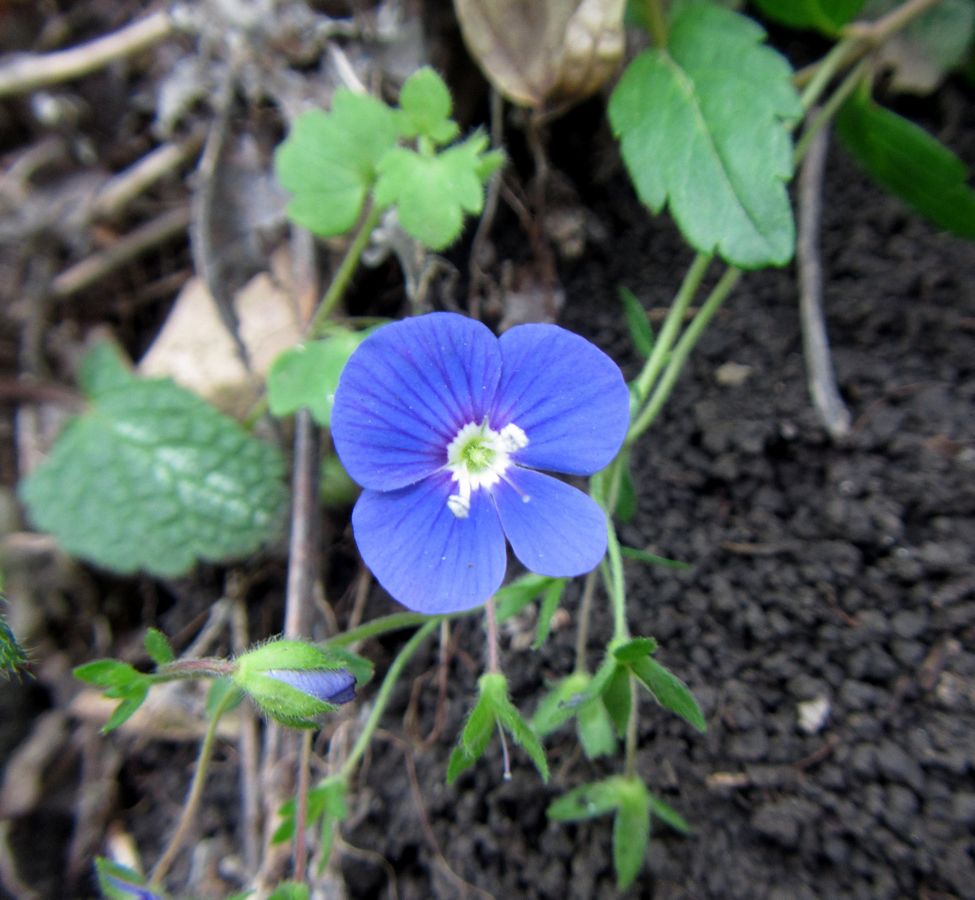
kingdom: Plantae
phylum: Tracheophyta
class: Magnoliopsida
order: Lamiales
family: Plantaginaceae
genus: Veronica
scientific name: Veronica
